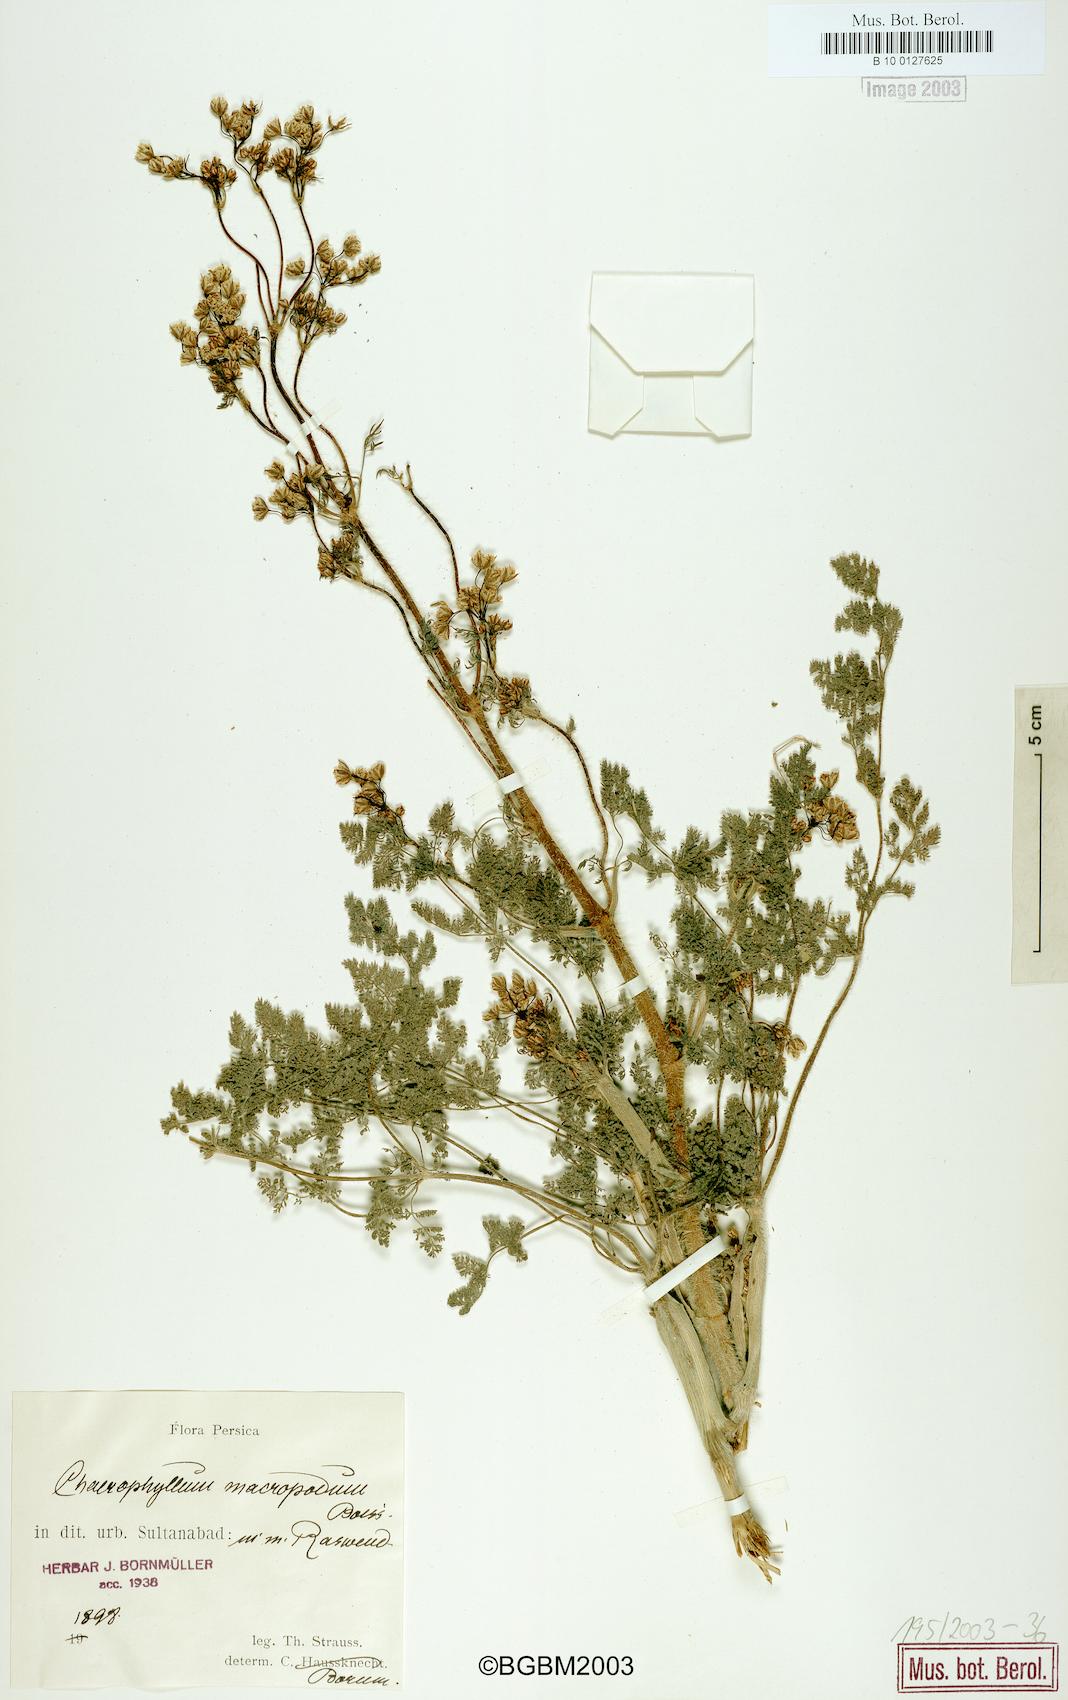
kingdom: Plantae
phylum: Tracheophyta
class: Magnoliopsida
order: Apiales
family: Apiaceae
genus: Chaerophyllum
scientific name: Chaerophyllum macropodum
